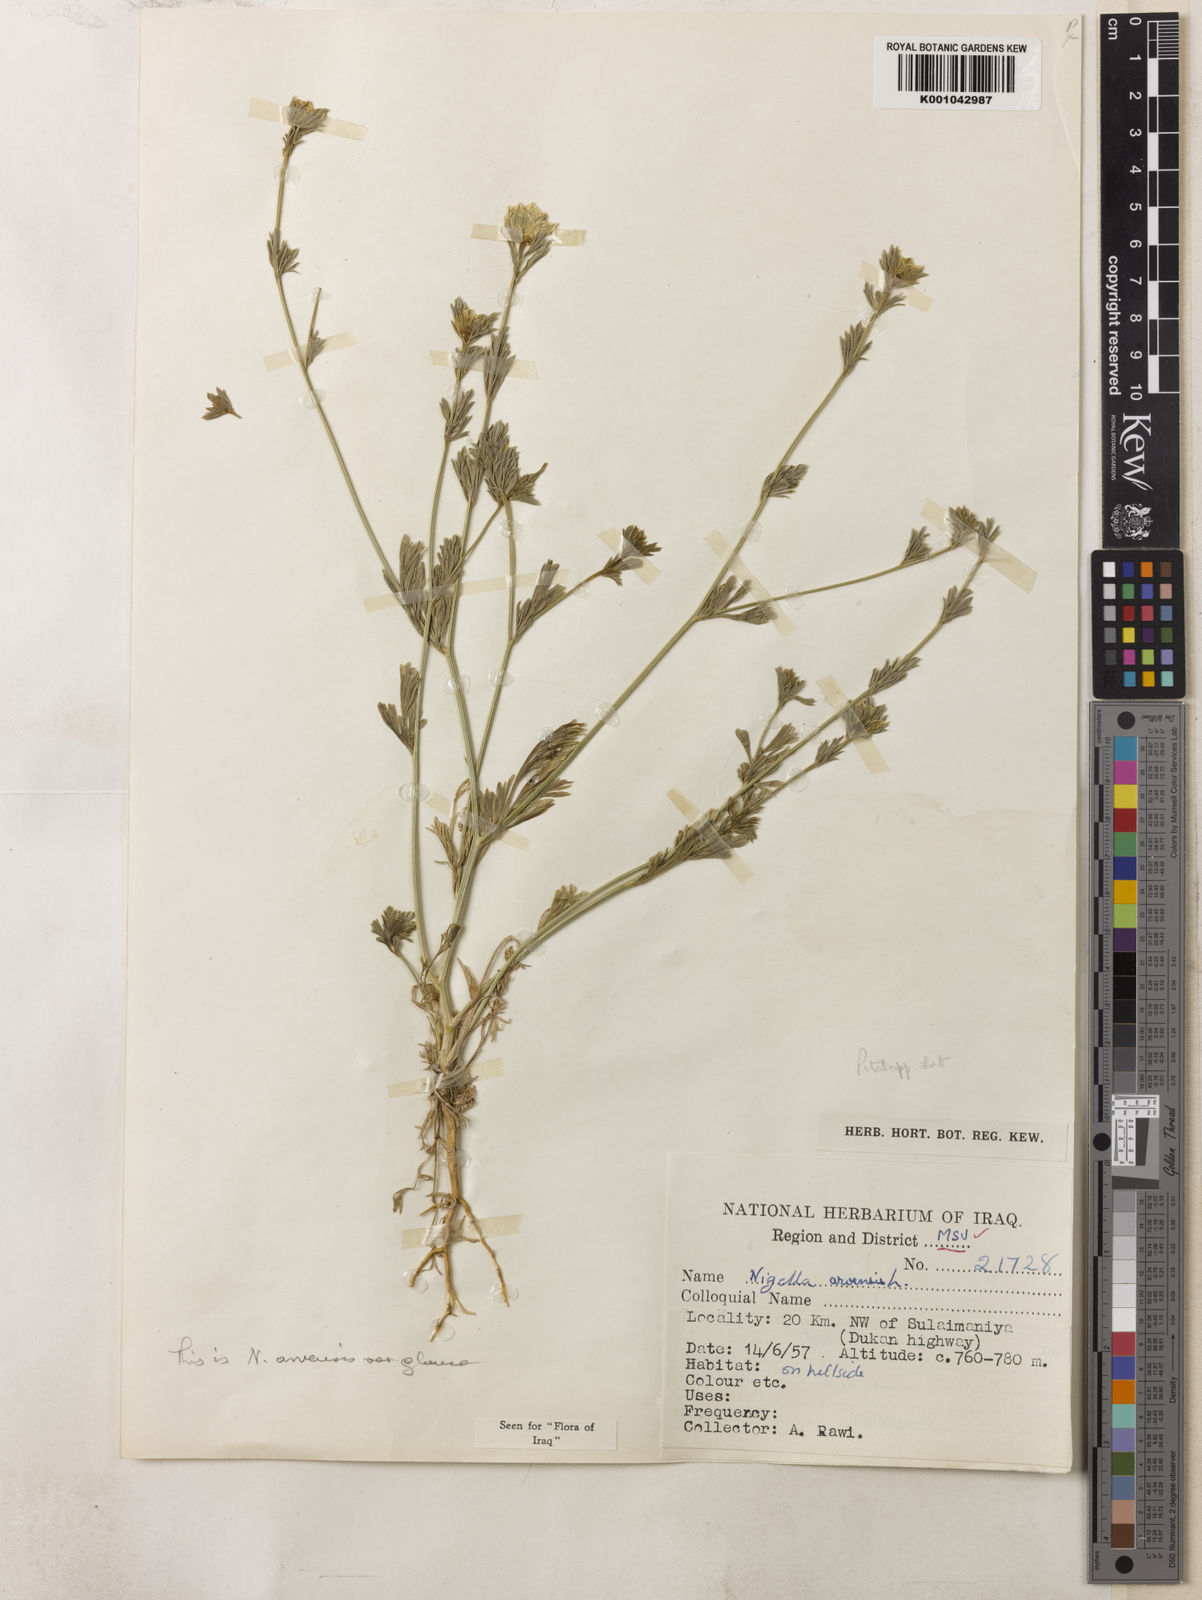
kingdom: Plantae
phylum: Tracheophyta
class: Magnoliopsida
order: Ranunculales
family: Ranunculaceae
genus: Nigella
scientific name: Nigella arvensis
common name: Wild fennel-flower
